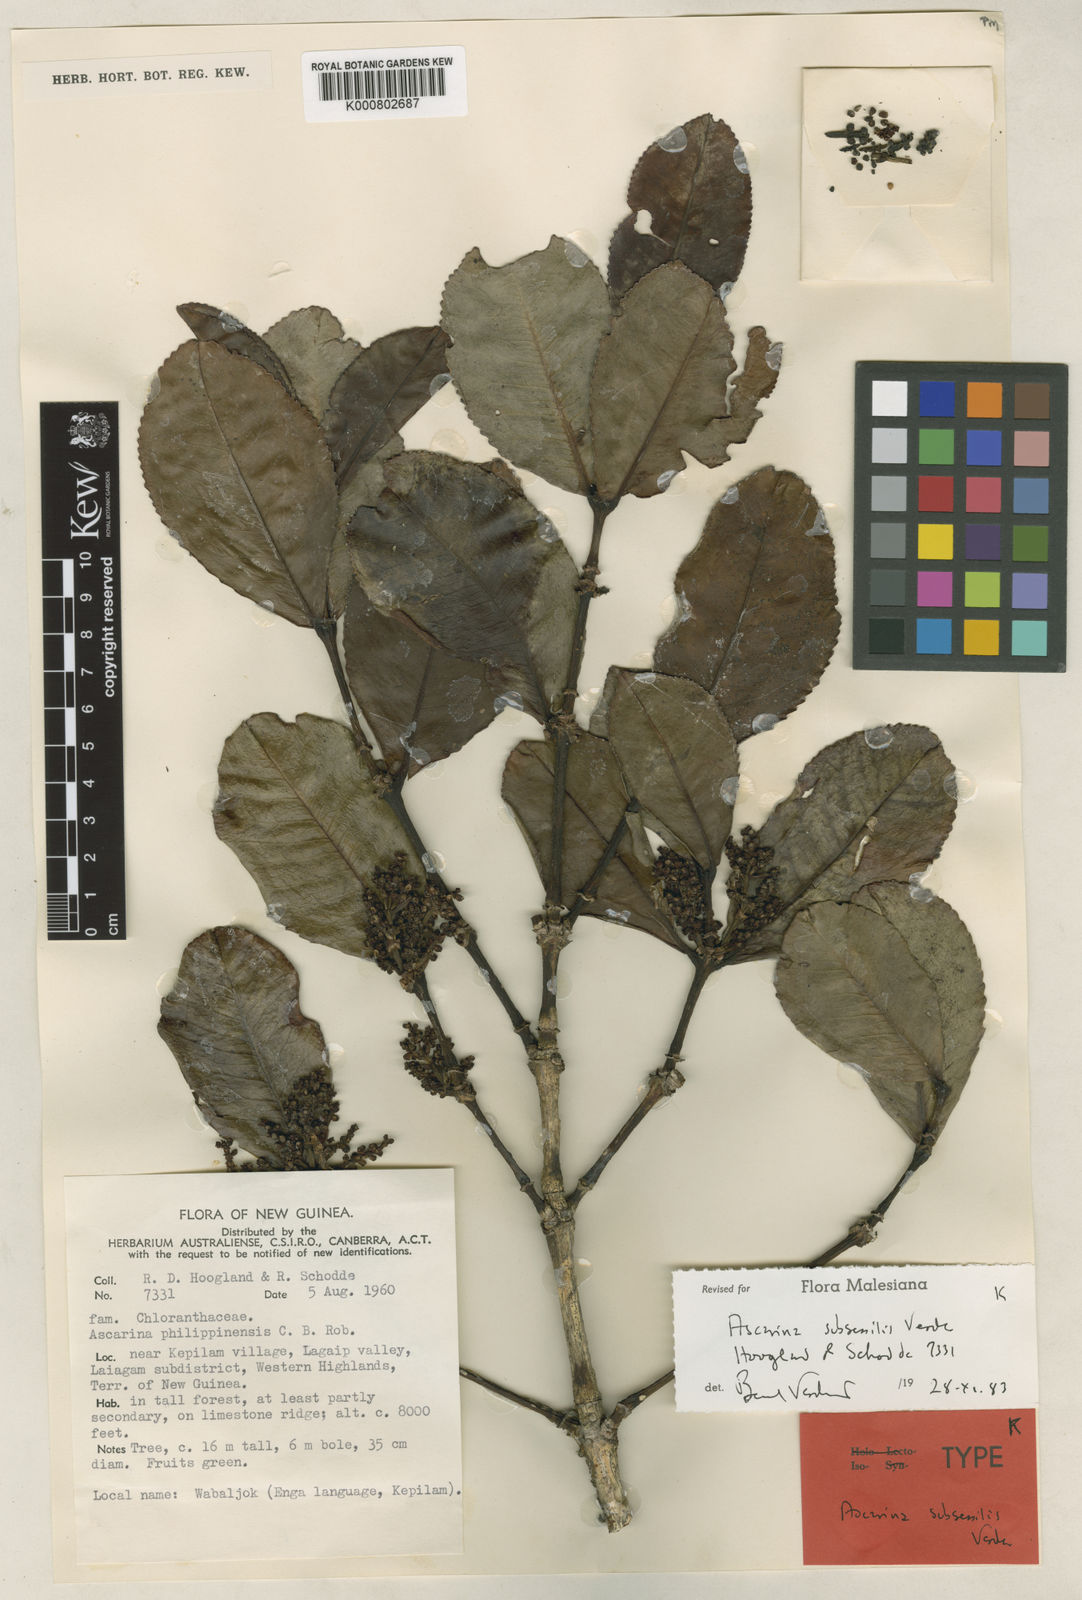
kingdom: Plantae
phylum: Tracheophyta
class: Magnoliopsida
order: Chloranthales
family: Chloranthaceae
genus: Ascarina
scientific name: Ascarina subsessilis
